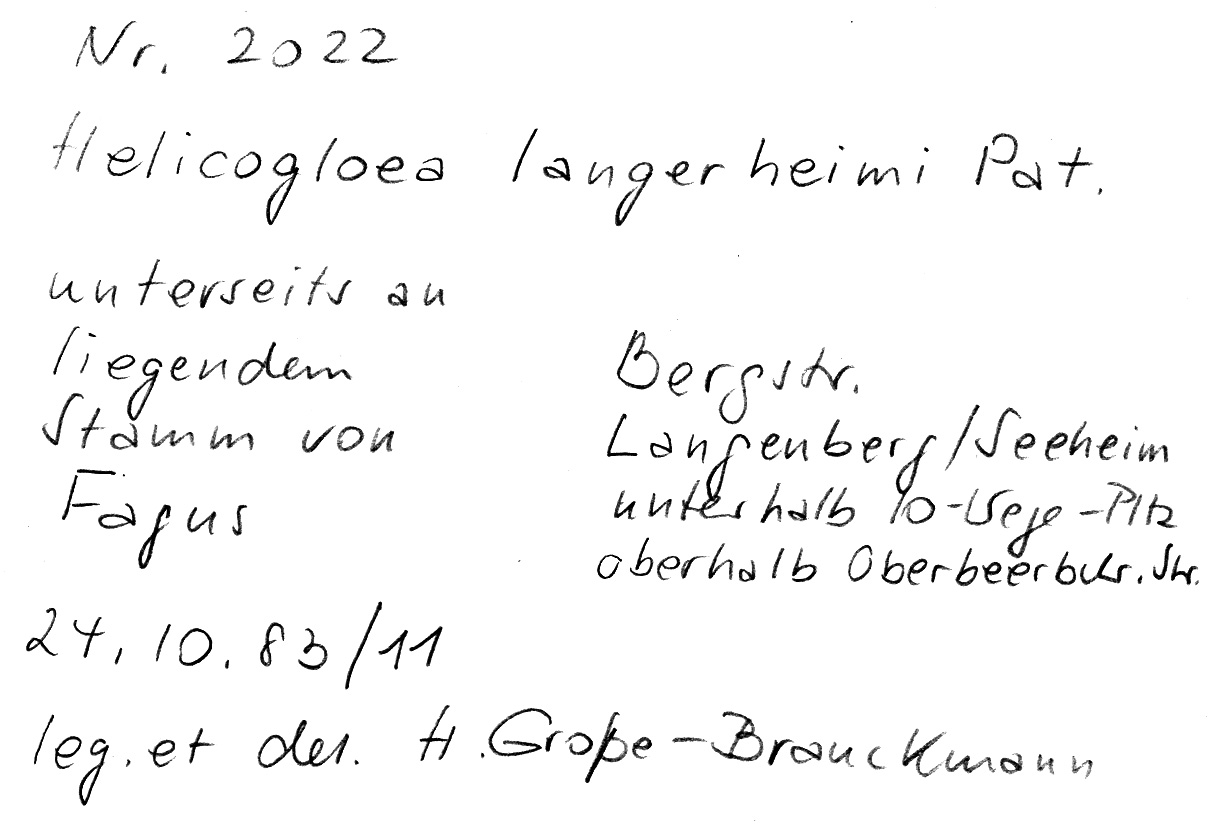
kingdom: Fungi
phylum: Basidiomycota
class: Atractiellomycetes
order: Atractiellales
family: Phleogenaceae
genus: Helicogloea
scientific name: Helicogloea lagerheimii
